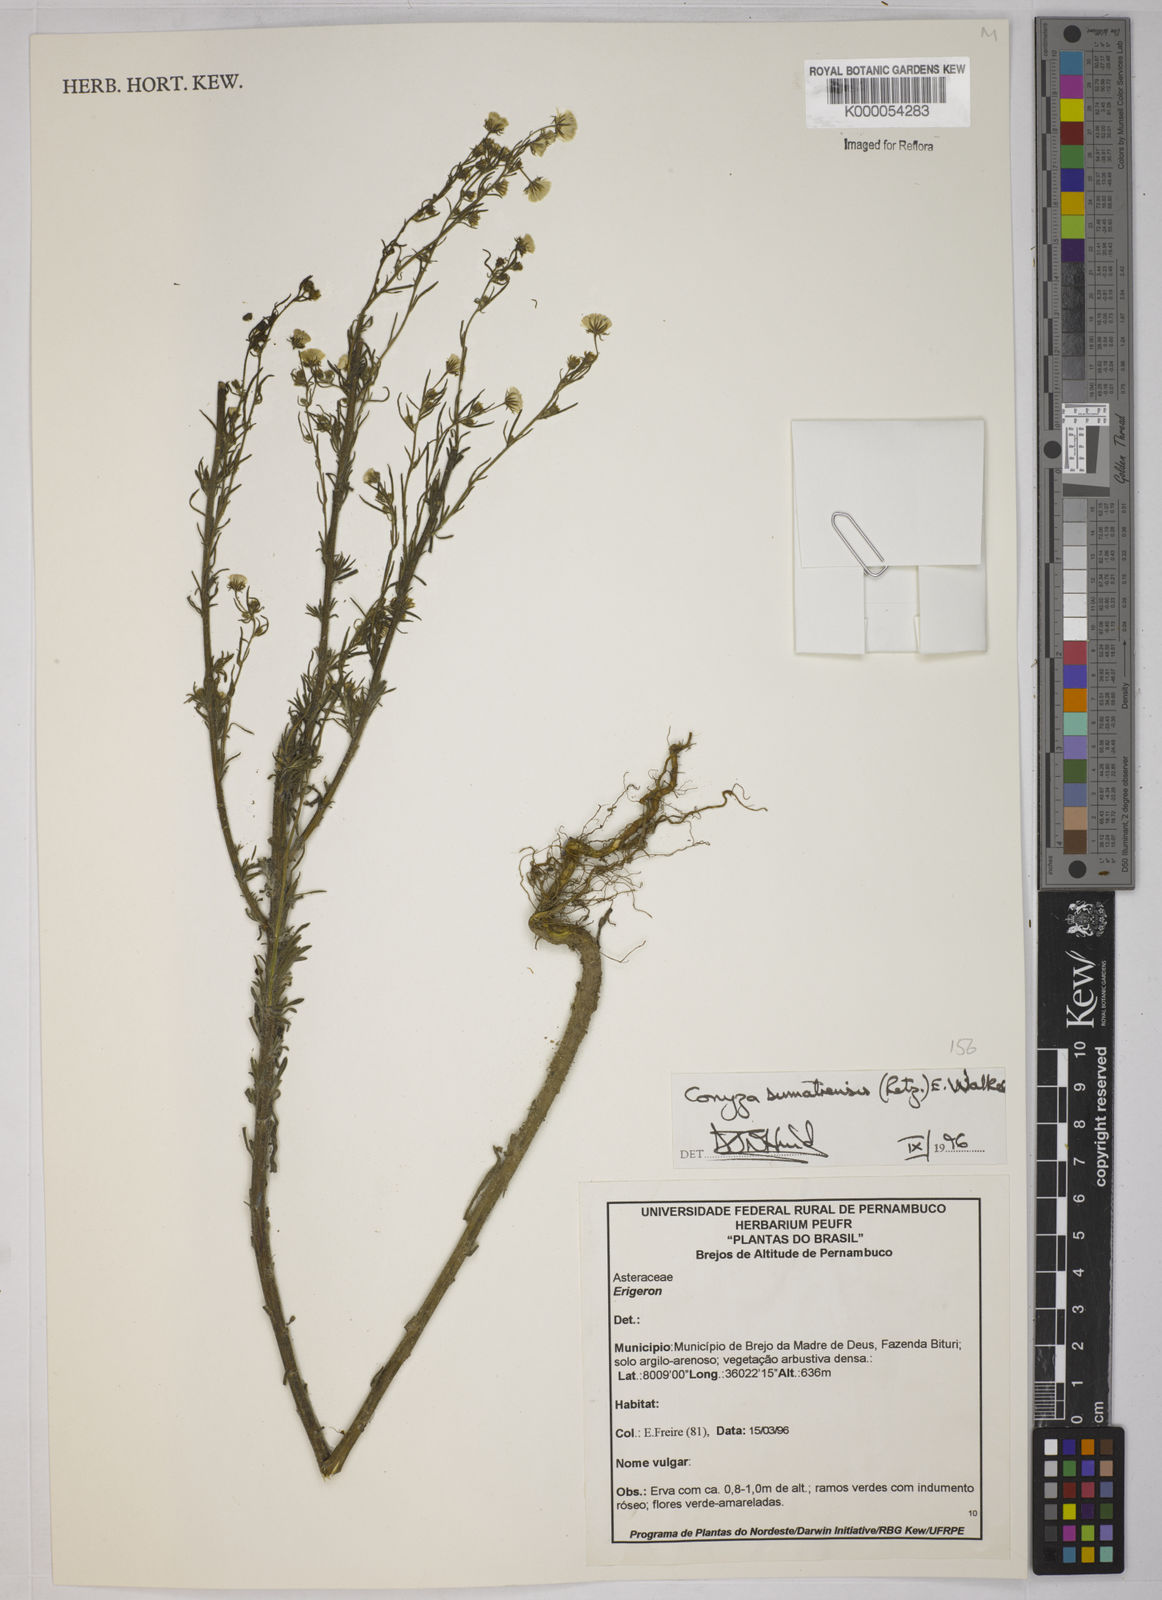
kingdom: Plantae
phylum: Tracheophyta
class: Magnoliopsida
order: Asterales
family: Asteraceae
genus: Erigeron
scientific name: Erigeron sumatrensis
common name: Daisy
